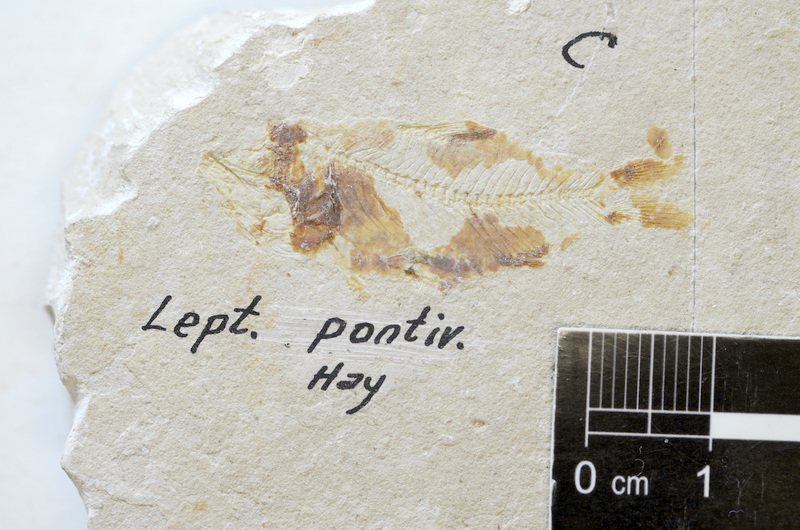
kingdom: Animalia
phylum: Chordata
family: Armigatidae
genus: Armigatus
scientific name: Armigatus Clupea brevissima
